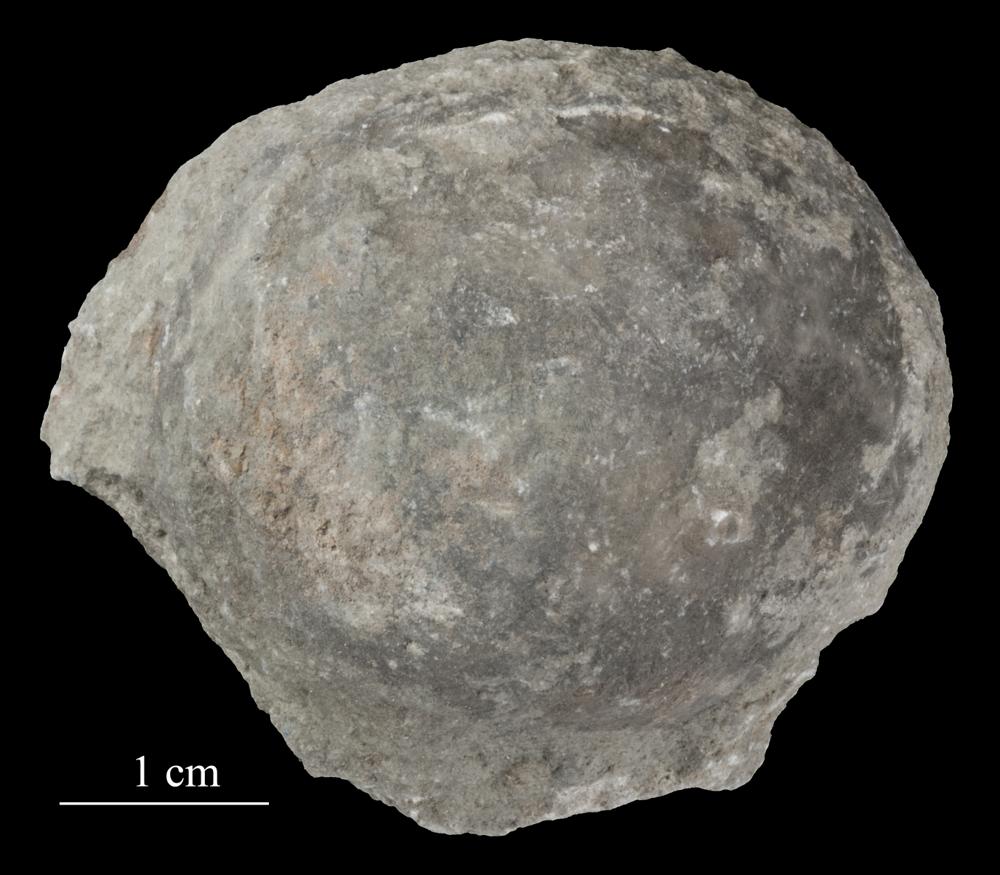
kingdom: Animalia
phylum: Echinodermata
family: Echinosphaeritidae
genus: Echinosphaerites
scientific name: Echinosphaerites Echinus aurantium
